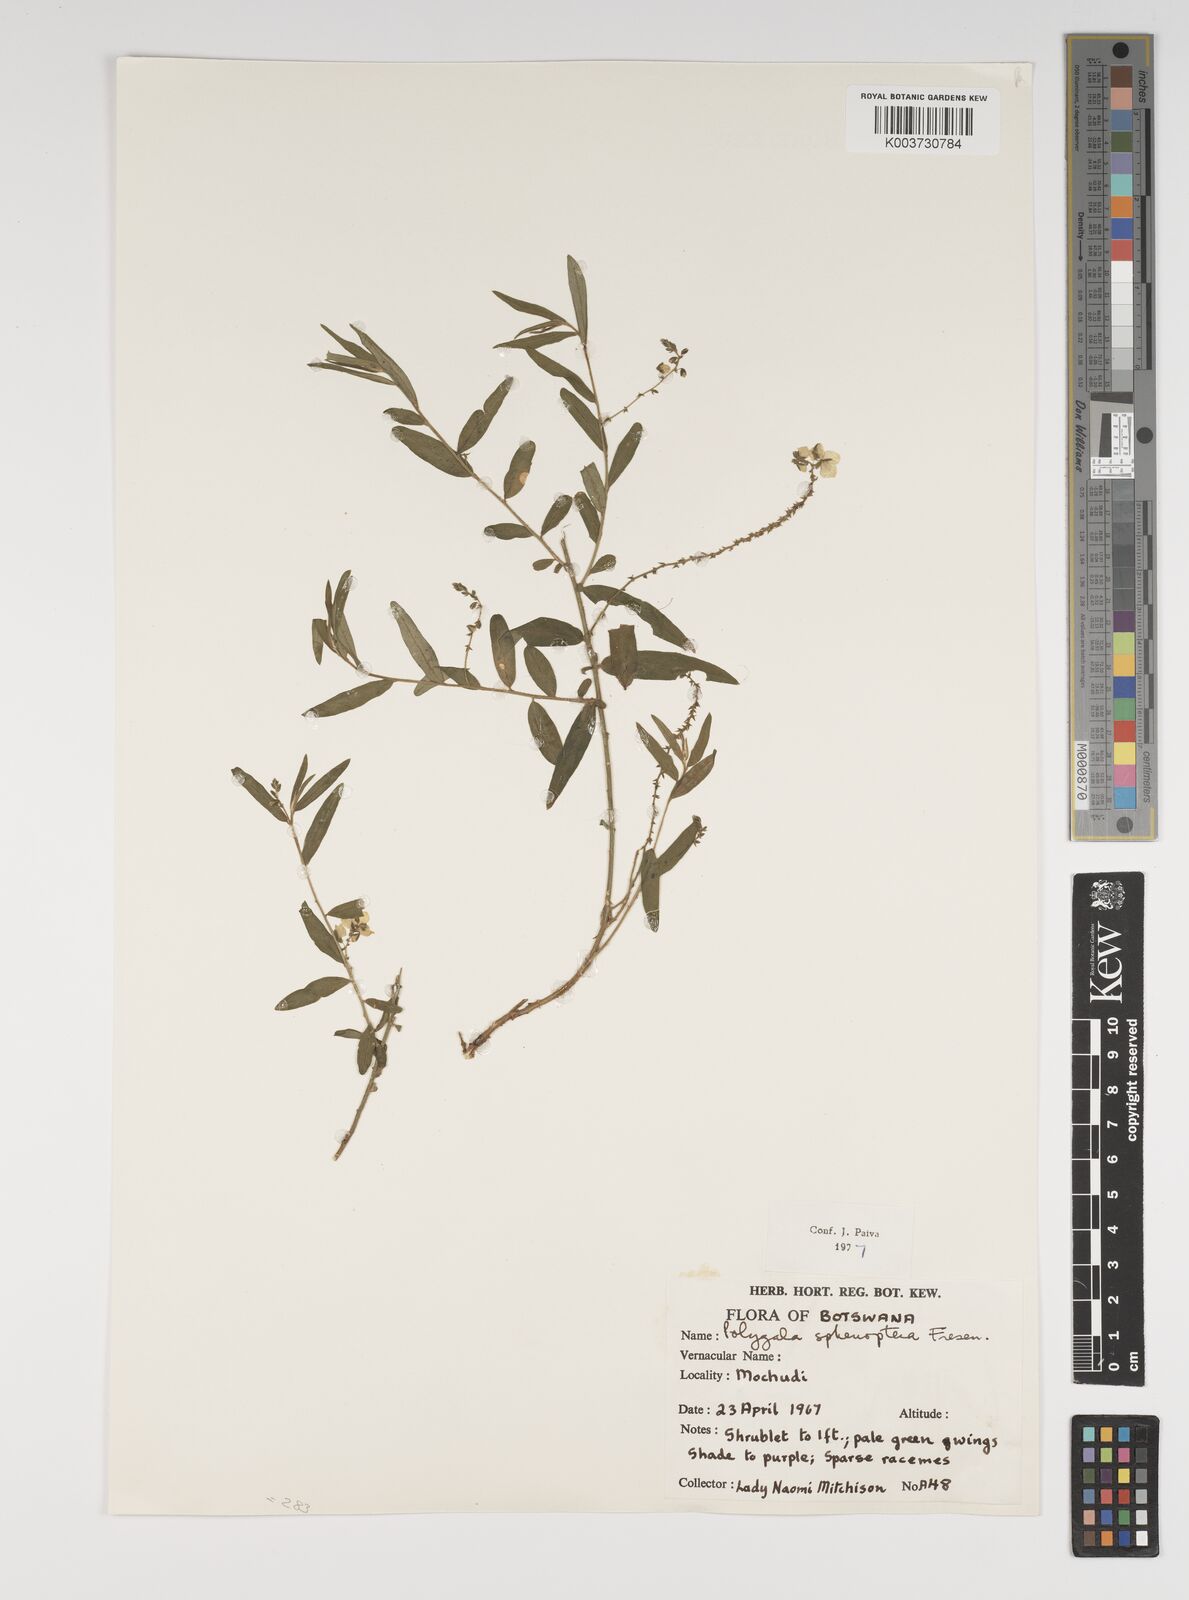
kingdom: Plantae
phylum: Tracheophyta
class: Magnoliopsida
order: Fabales
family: Polygalaceae
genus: Polygala
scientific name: Polygala sphenoptera
